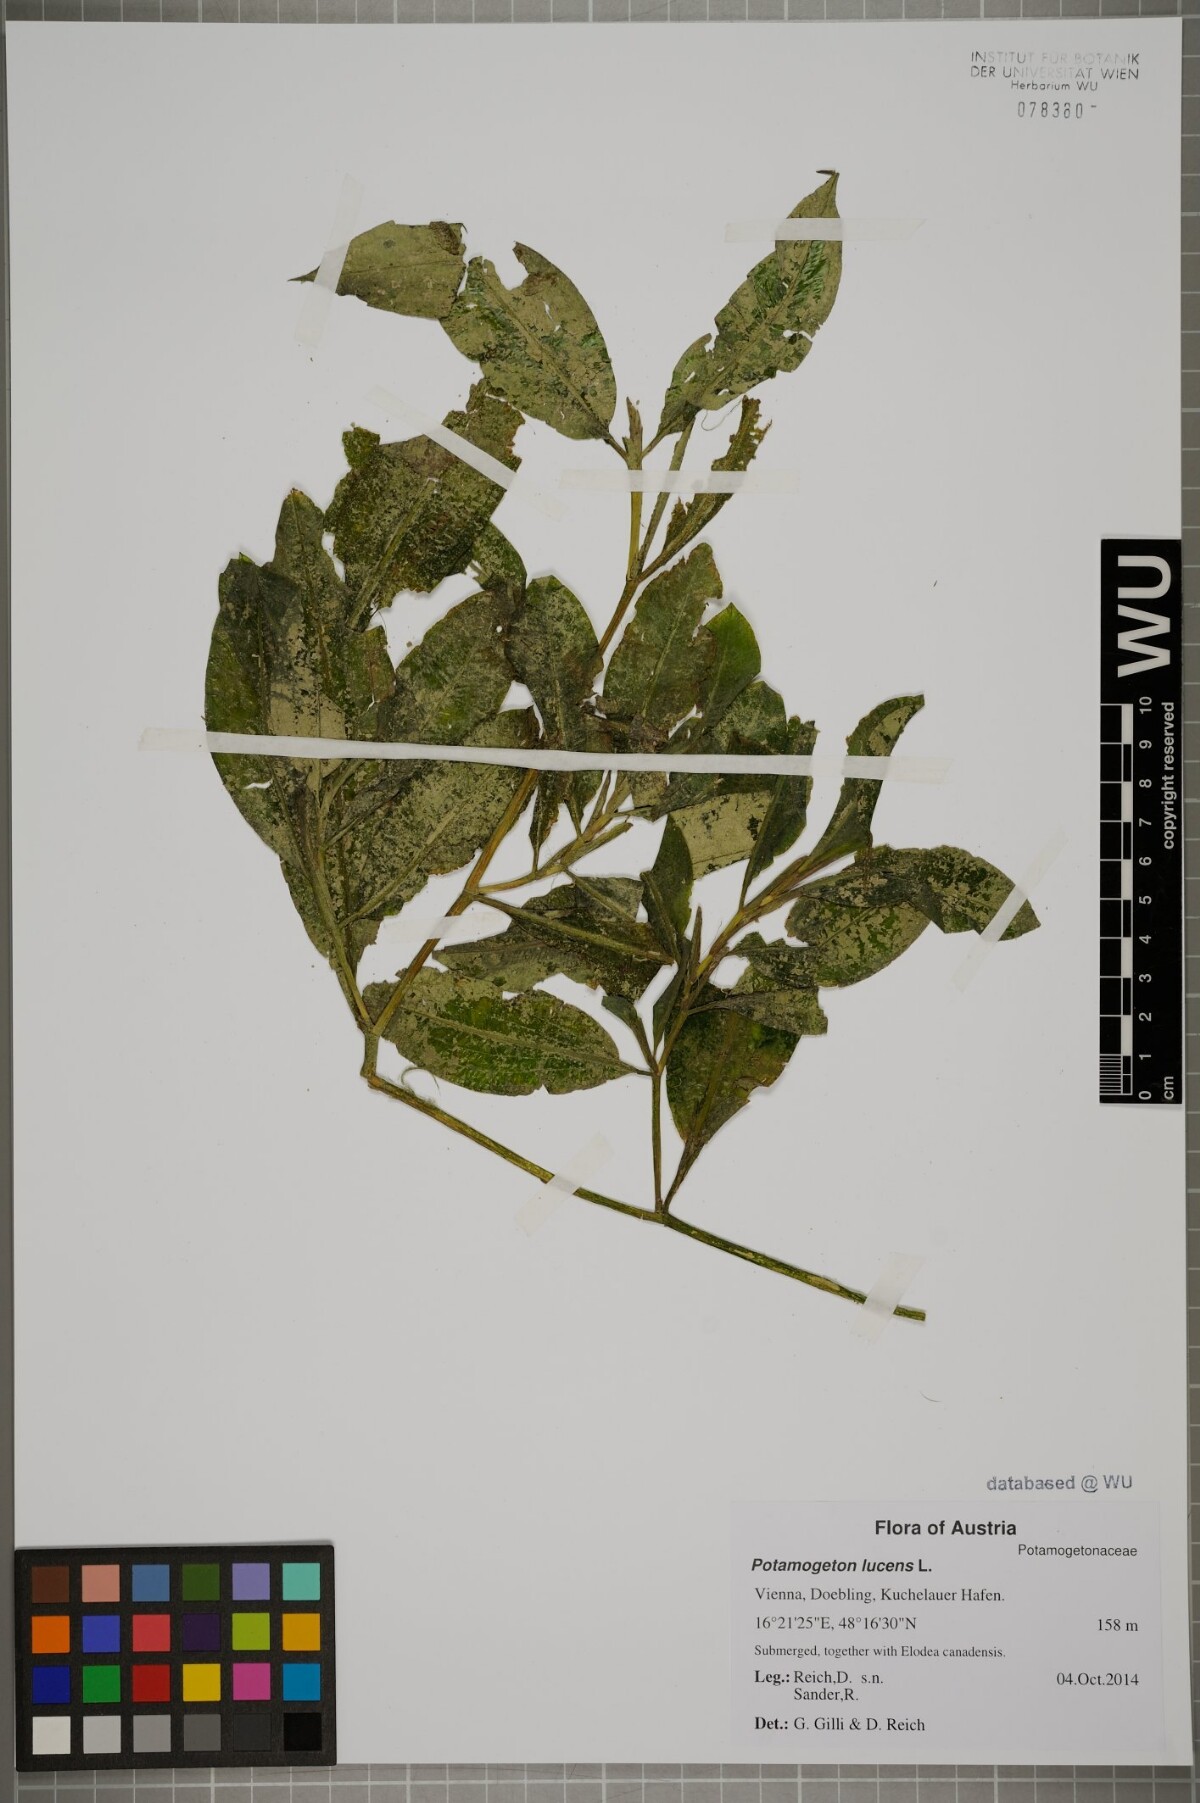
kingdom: Plantae
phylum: Tracheophyta
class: Liliopsida
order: Alismatales
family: Potamogetonaceae
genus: Potamogeton
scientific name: Potamogeton lucens
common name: Shining pondweed
